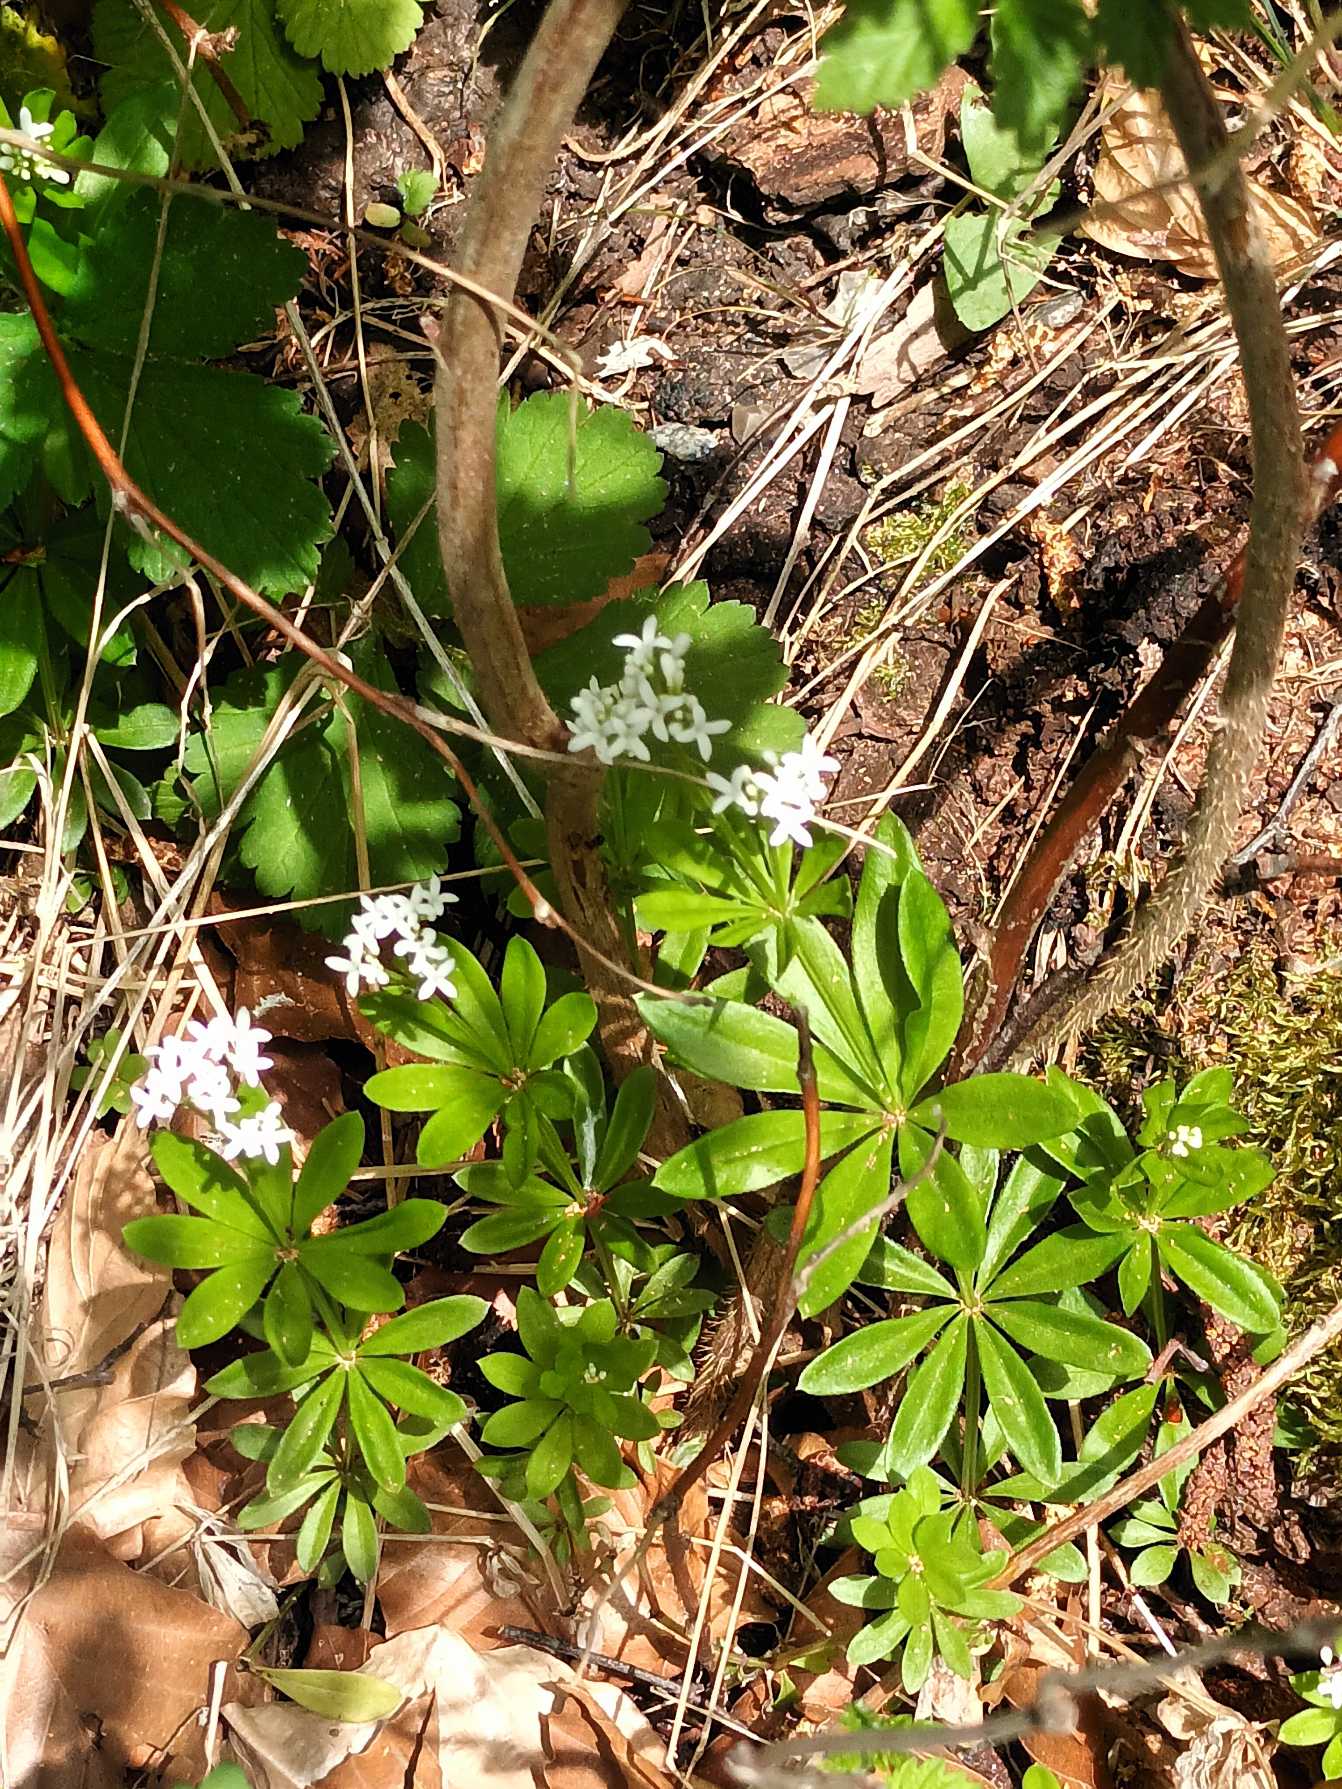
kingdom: Plantae
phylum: Tracheophyta
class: Magnoliopsida
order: Gentianales
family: Rubiaceae
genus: Galium
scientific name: Galium odoratum
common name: Skovmærke
